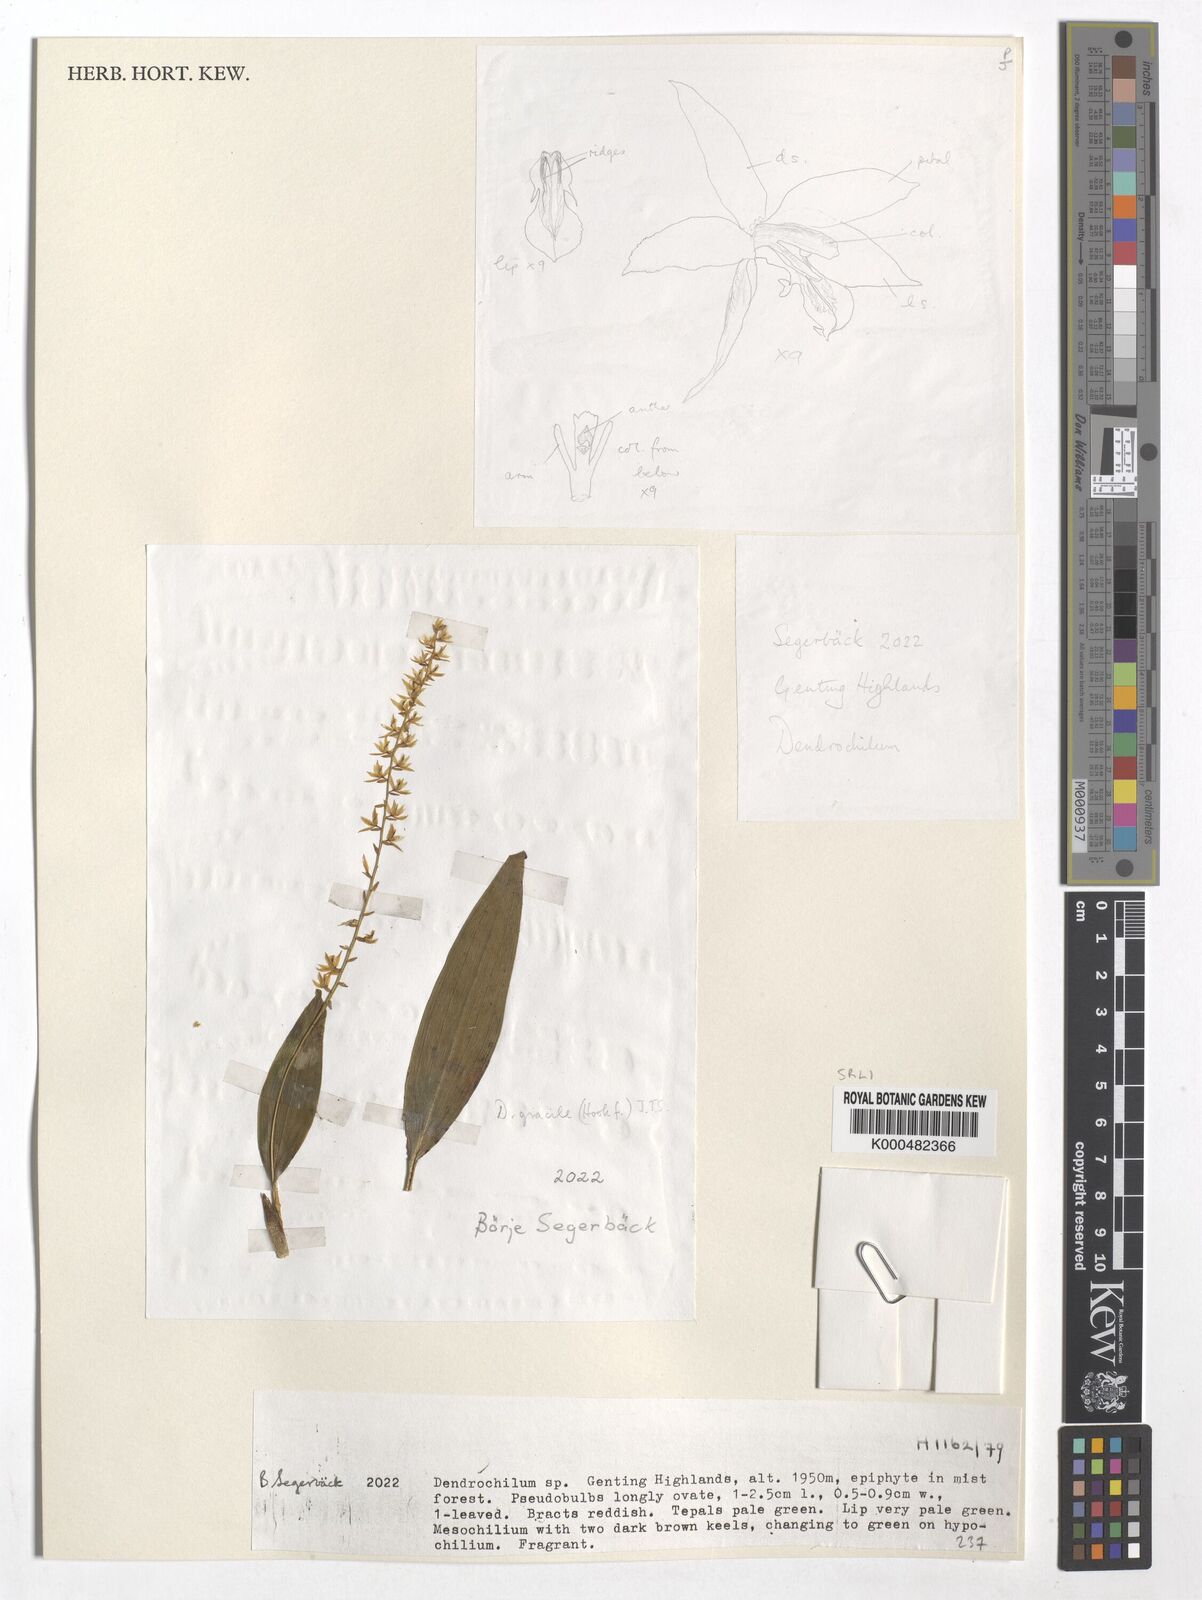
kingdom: Plantae
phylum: Tracheophyta
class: Liliopsida
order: Asparagales
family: Orchidaceae
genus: Coelogyne
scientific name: Coelogyne gracilis
